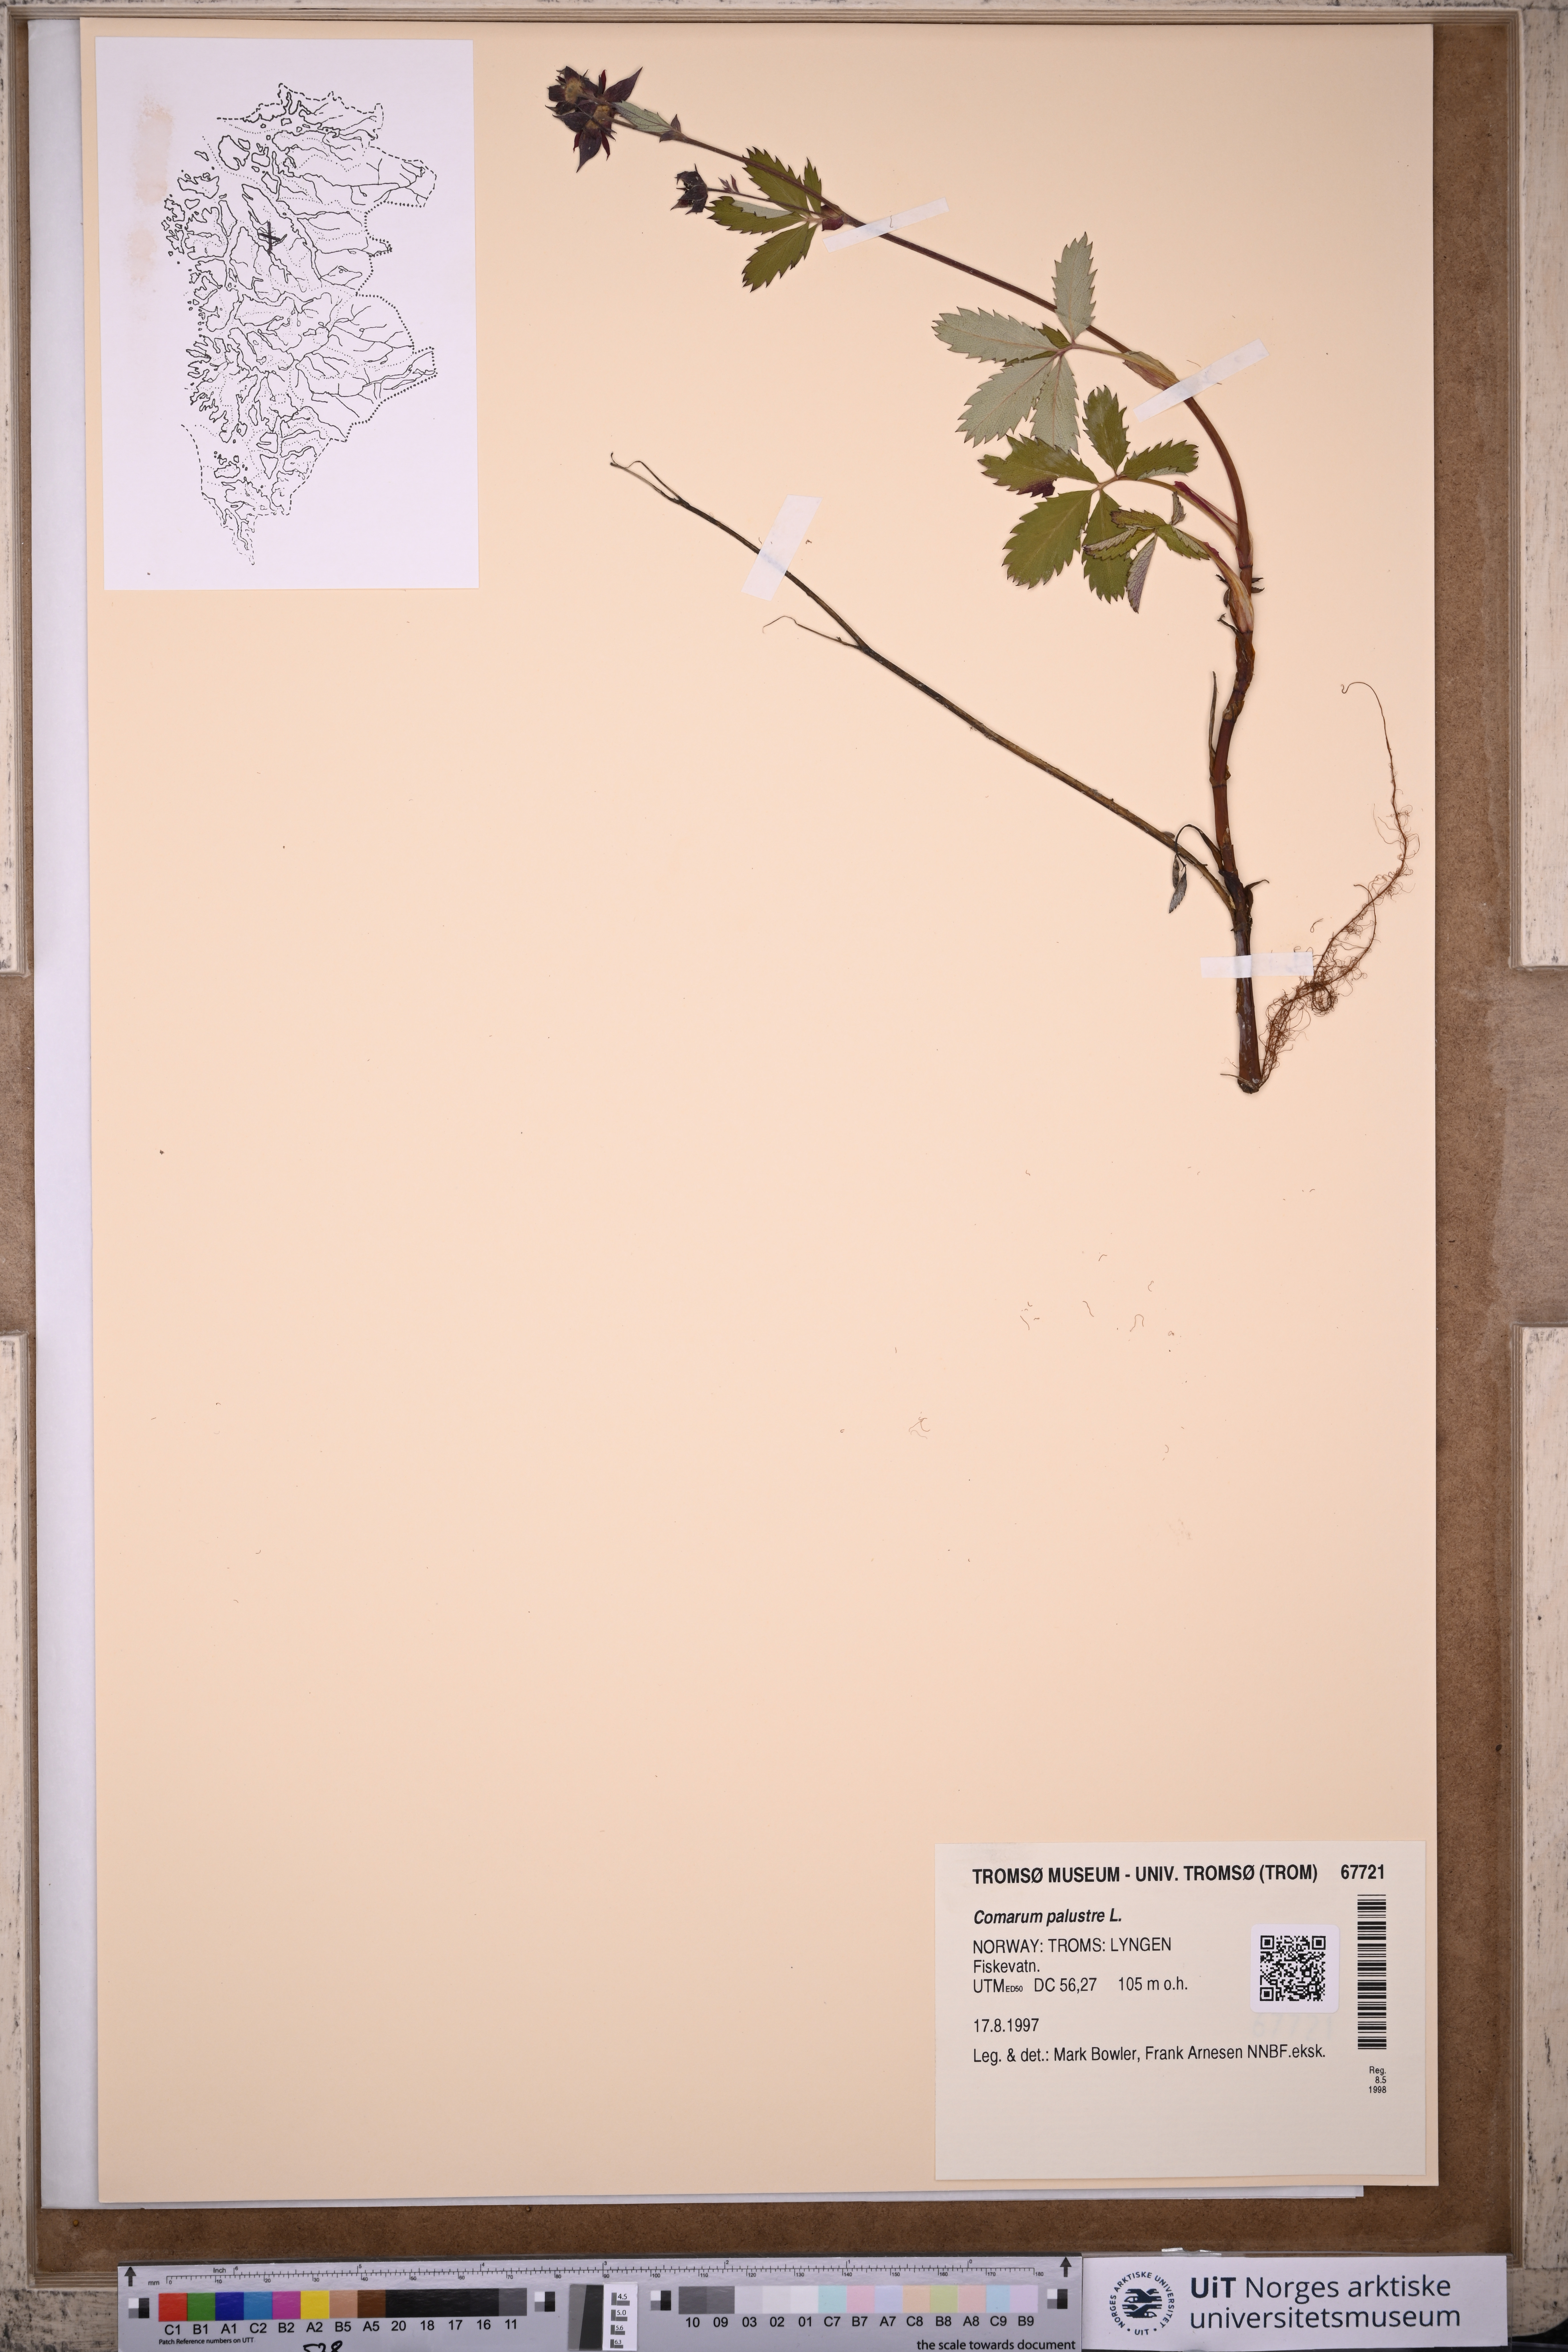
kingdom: Plantae
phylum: Tracheophyta
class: Magnoliopsida
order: Rosales
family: Rosaceae
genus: Comarum
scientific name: Comarum palustre
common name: Marsh cinquefoil
